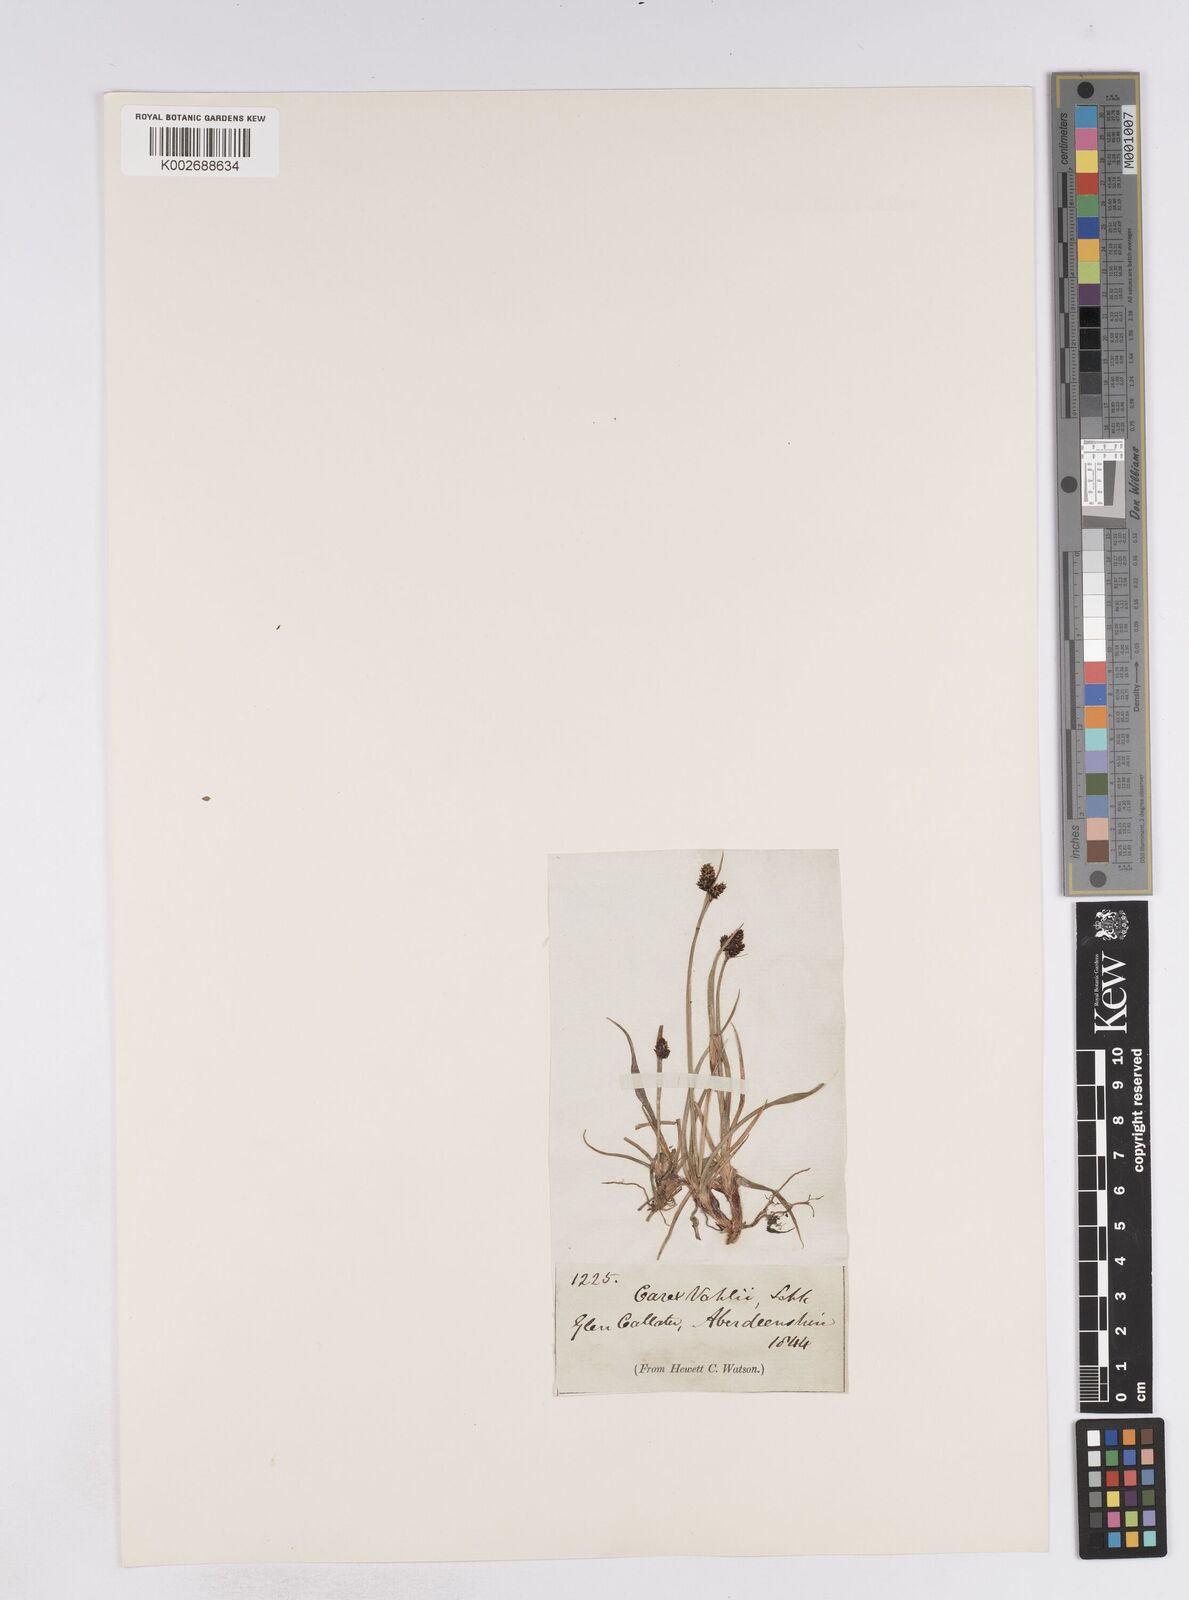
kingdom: Plantae
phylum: Tracheophyta
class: Liliopsida
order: Poales
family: Cyperaceae
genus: Carex
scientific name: Carex norvegica
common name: Close-headed alpine-sedge
